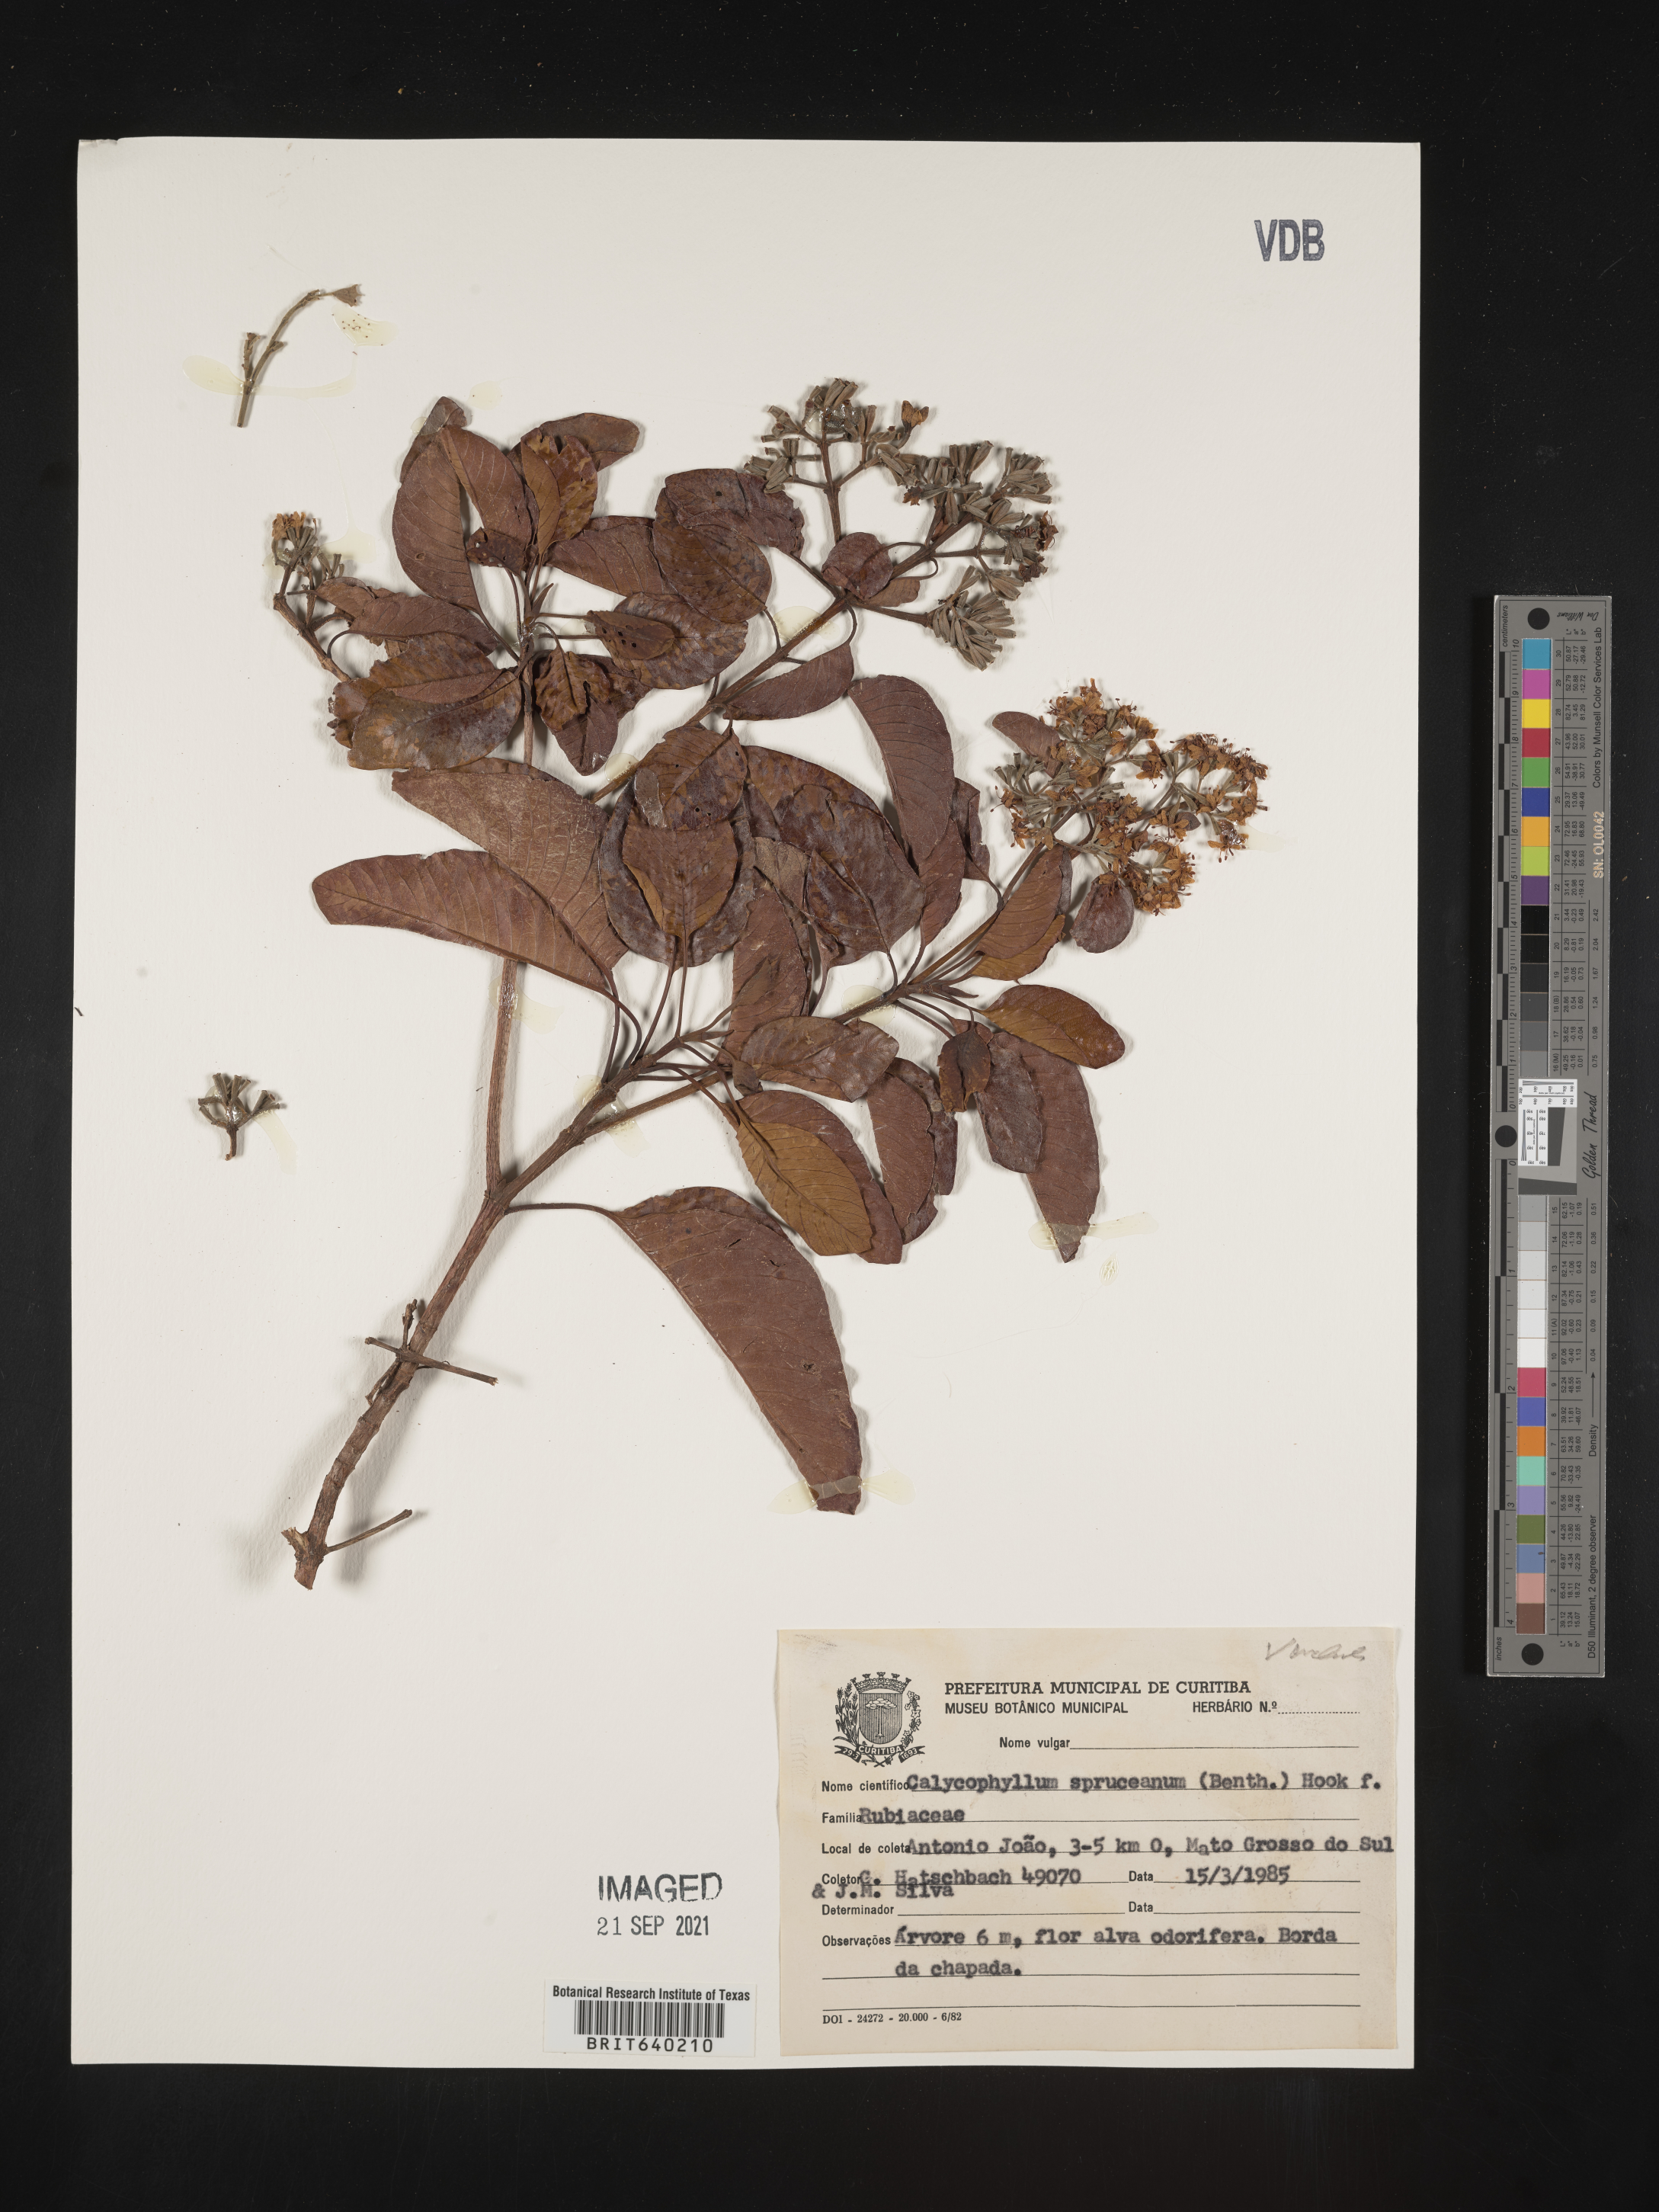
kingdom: Plantae
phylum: Tracheophyta
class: Magnoliopsida
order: Gentianales
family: Rubiaceae
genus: Calycophyllum
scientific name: Calycophyllum
